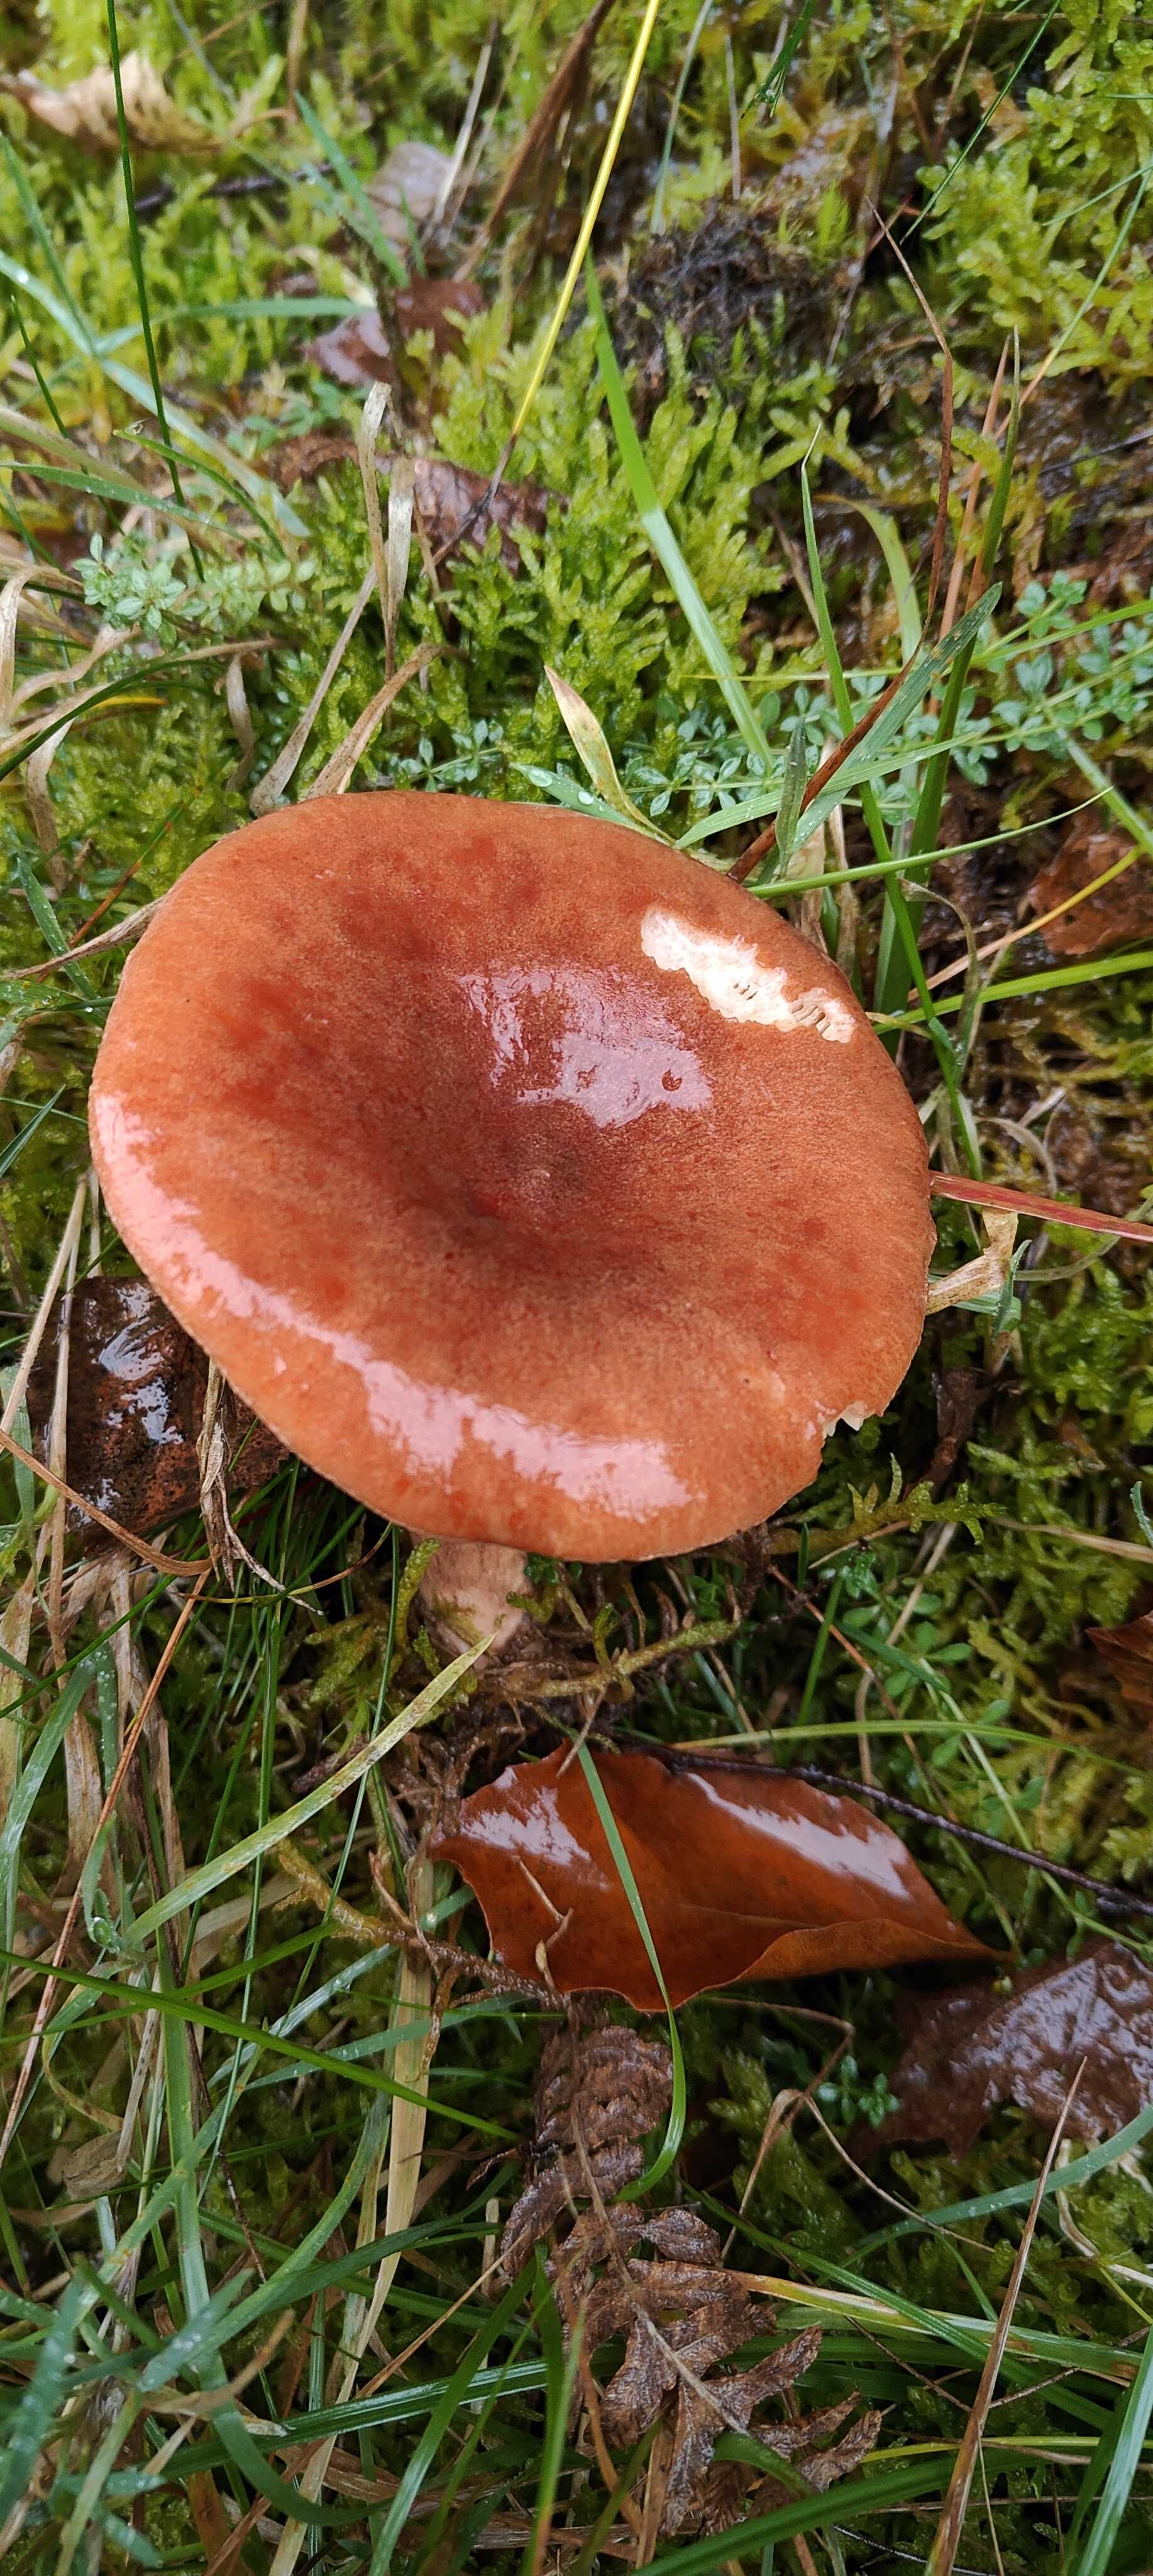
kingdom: Fungi
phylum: Basidiomycota
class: Agaricomycetes
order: Russulales
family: Russulaceae
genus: Lactarius
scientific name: Lactarius rufus
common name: rødbrun mælkehat
